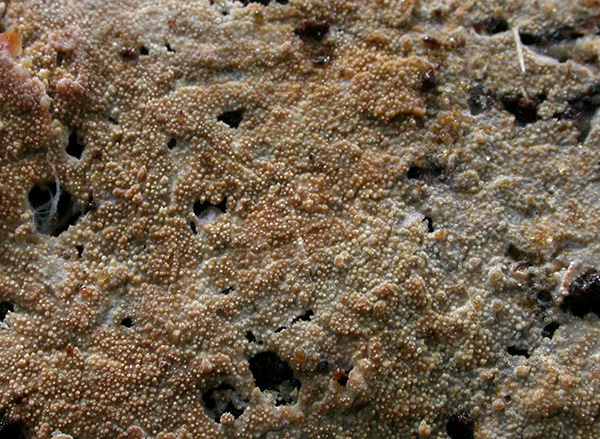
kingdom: Fungi
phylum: Basidiomycota
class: Agaricomycetes
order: Hymenochaetales
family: Rickenellaceae
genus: Resinicium
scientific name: Resinicium bicolor
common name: almindelig vokstand
